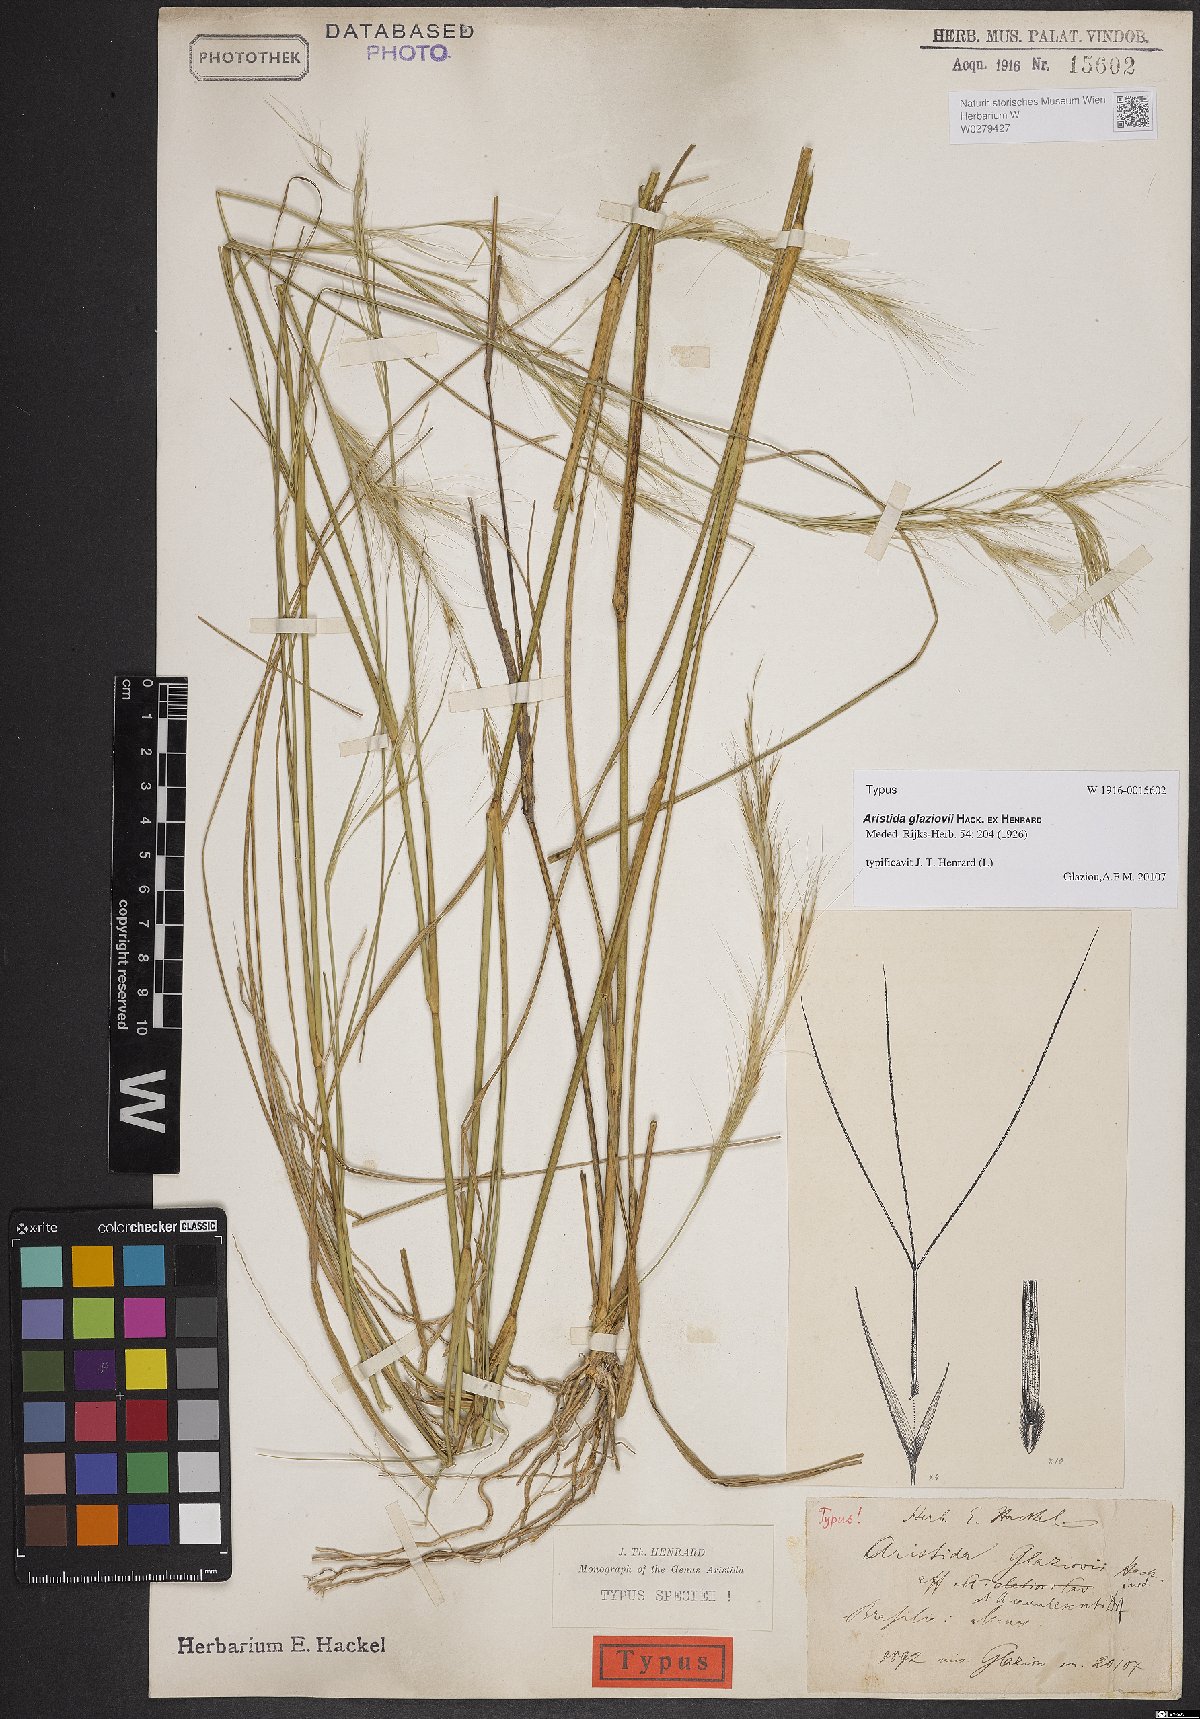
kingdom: Plantae
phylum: Tracheophyta
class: Liliopsida
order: Poales
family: Poaceae
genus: Aristida
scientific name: Aristida glaziovii
